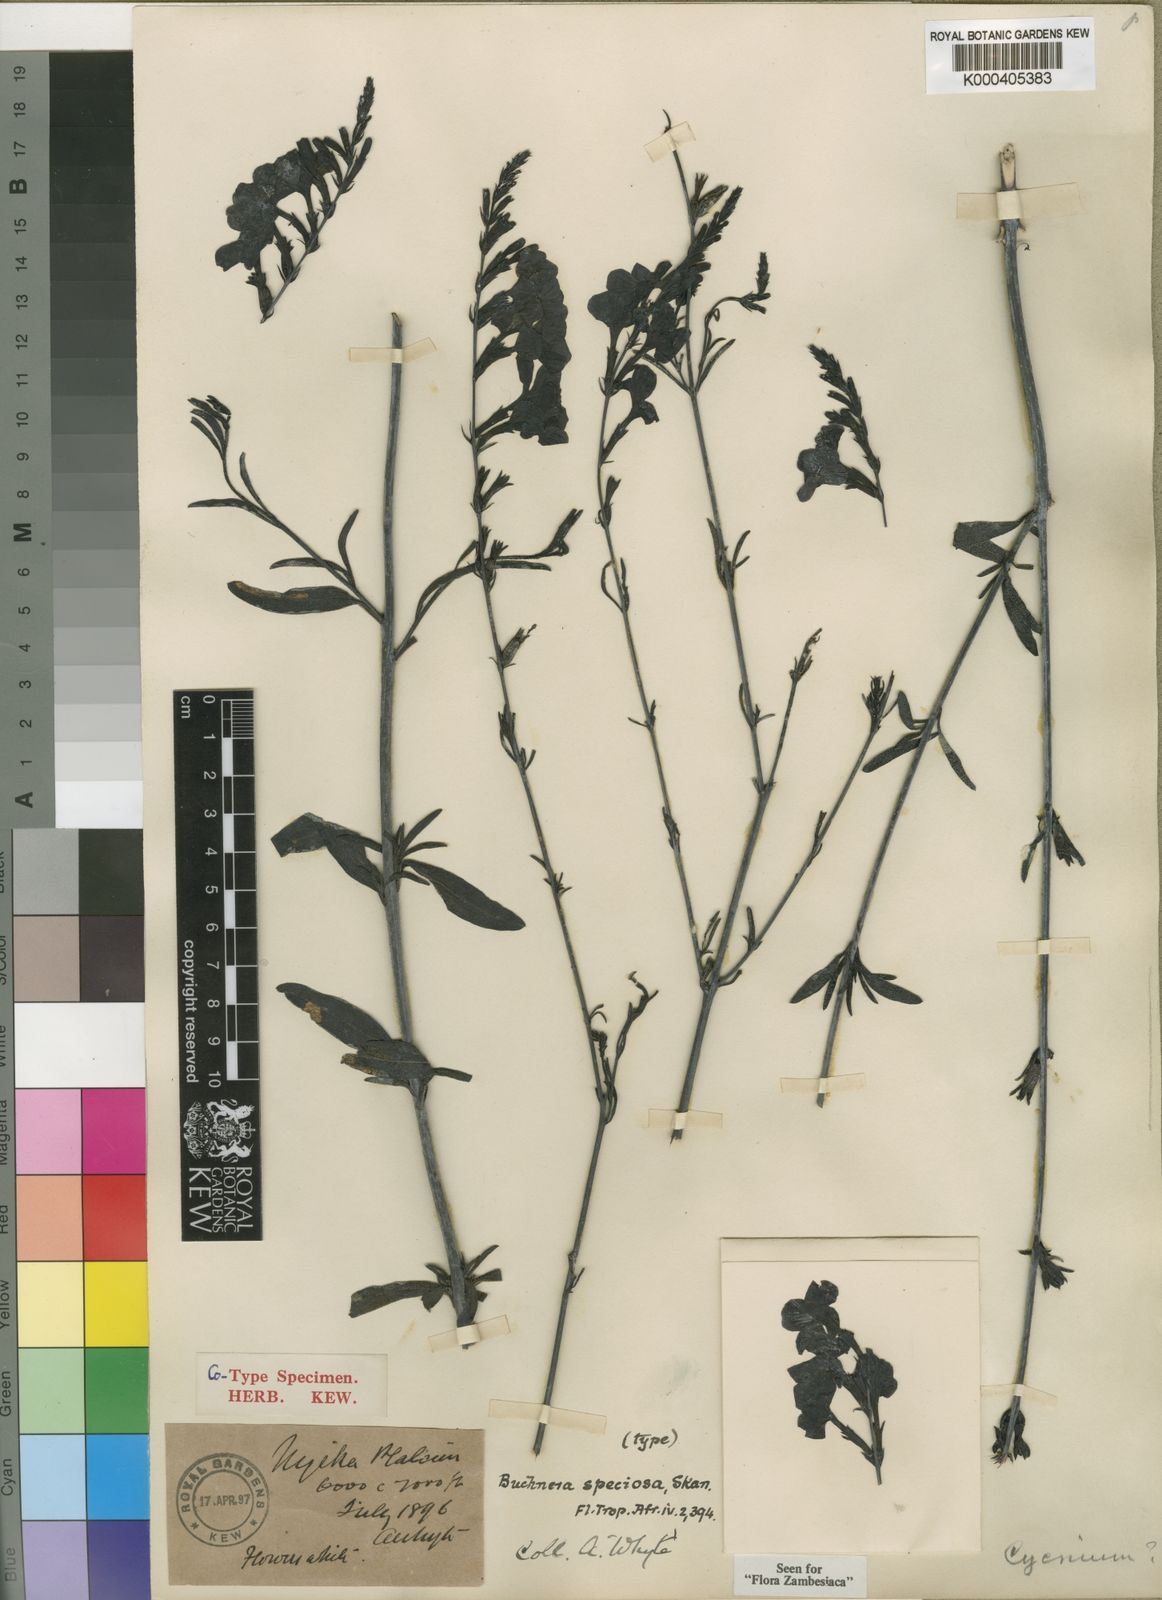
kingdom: Plantae
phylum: Tracheophyta
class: Magnoliopsida
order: Lamiales
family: Orobanchaceae
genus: Buchnera
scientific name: Buchnera speciosa
